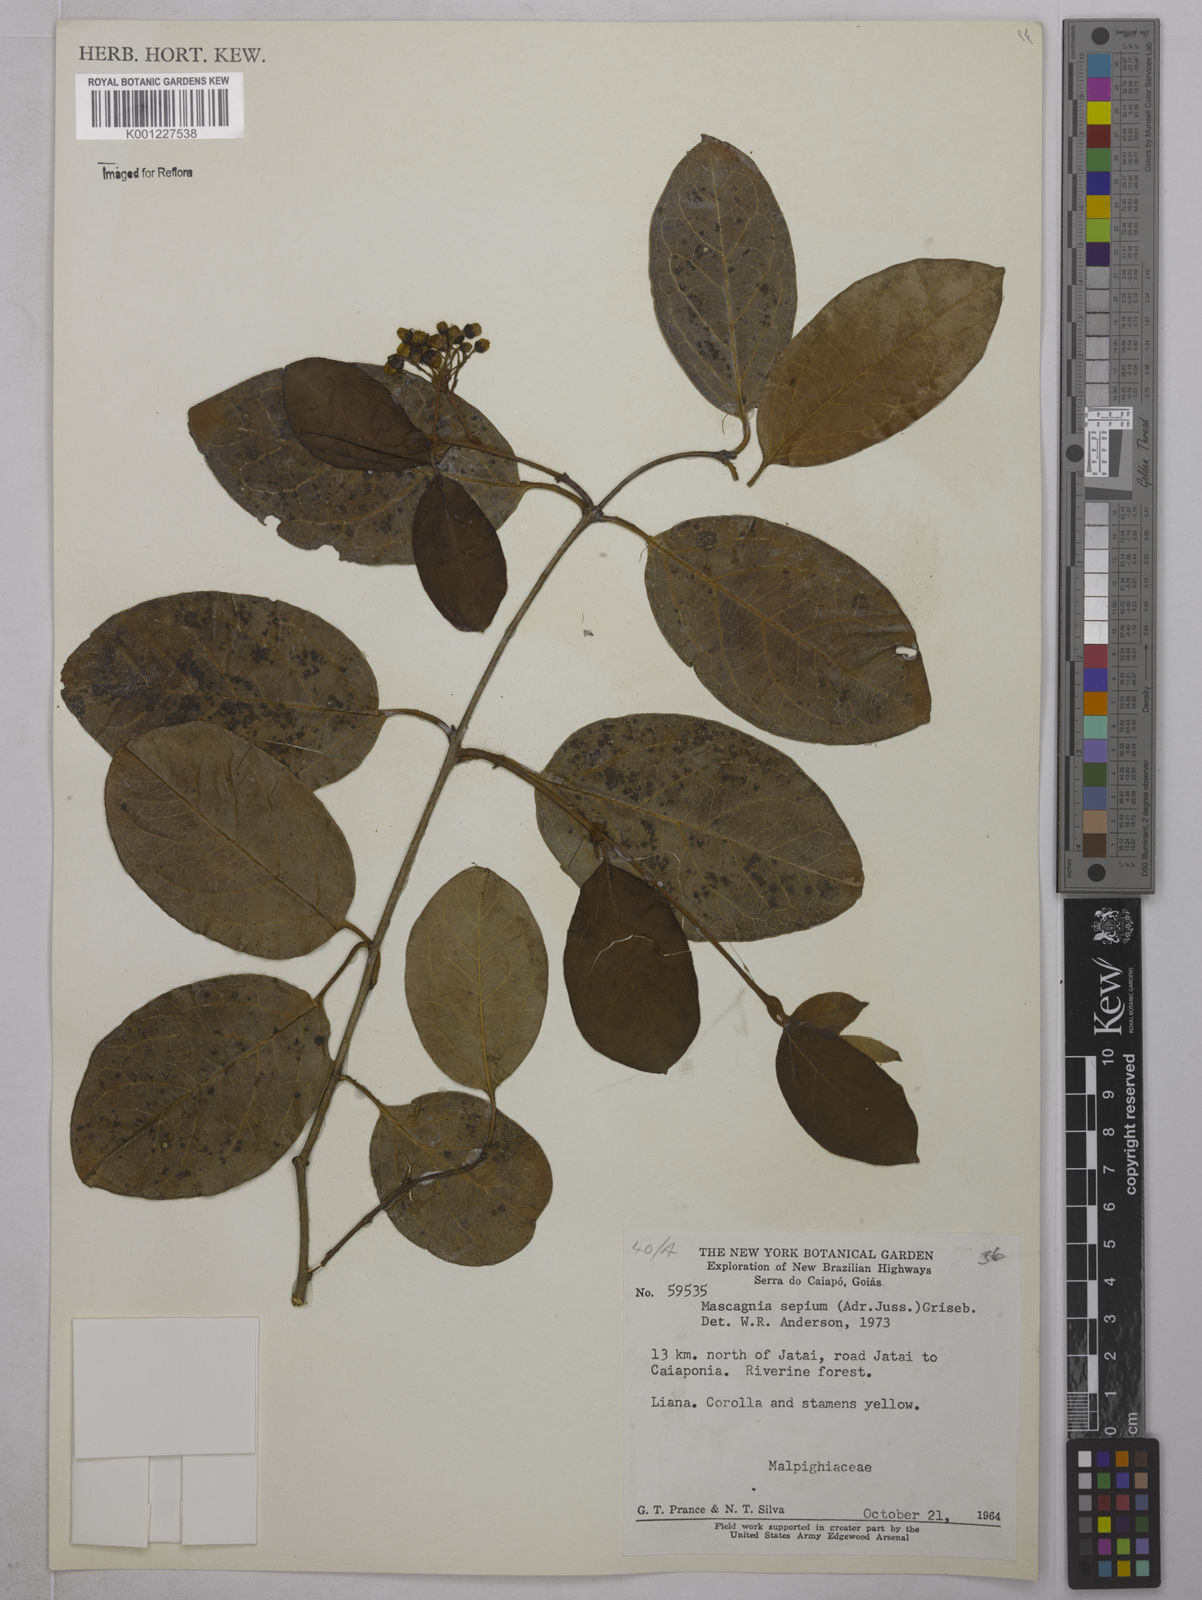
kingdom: Plantae
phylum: Tracheophyta
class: Magnoliopsida
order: Malpighiales
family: Malpighiaceae
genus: Mascagnia
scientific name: Mascagnia sepium
